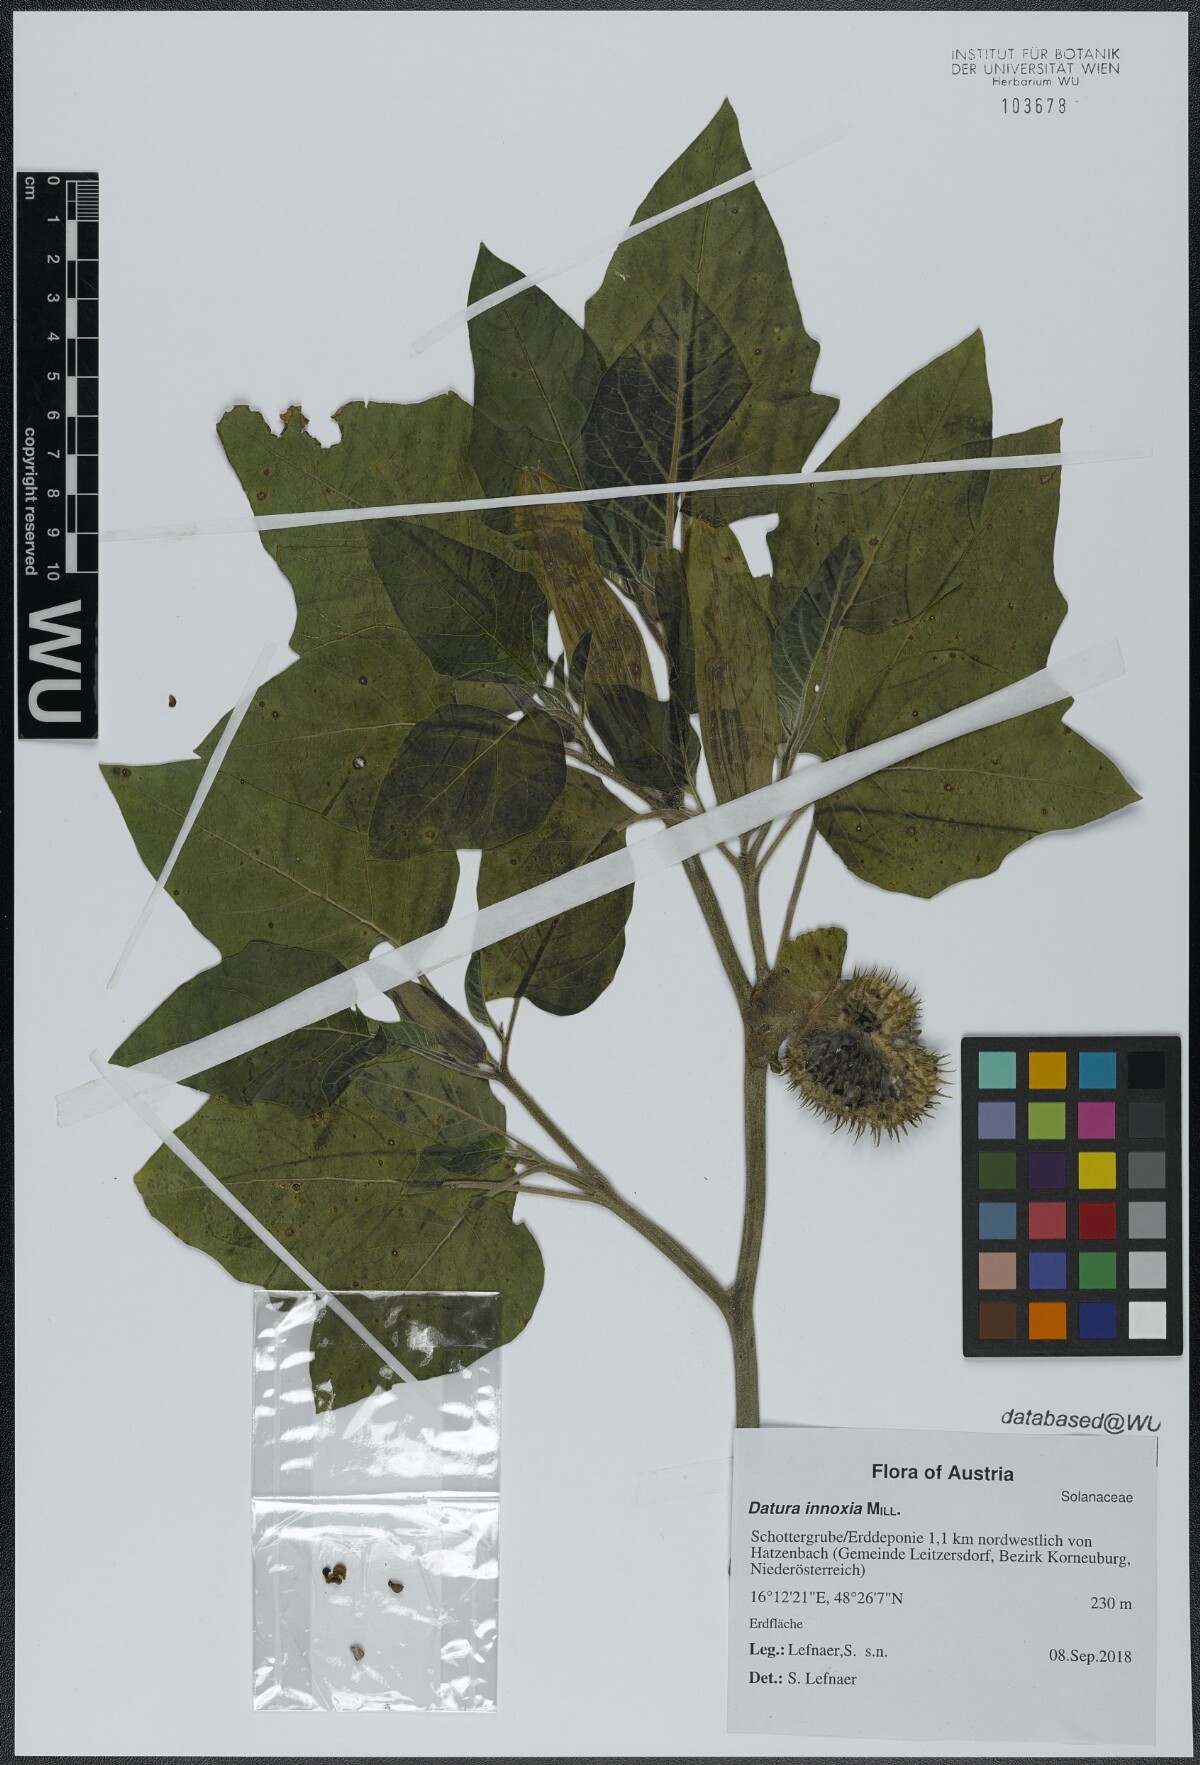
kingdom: Plantae
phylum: Tracheophyta
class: Magnoliopsida
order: Solanales
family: Solanaceae
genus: Datura
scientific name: Datura innoxia
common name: Downy thorn-apple
